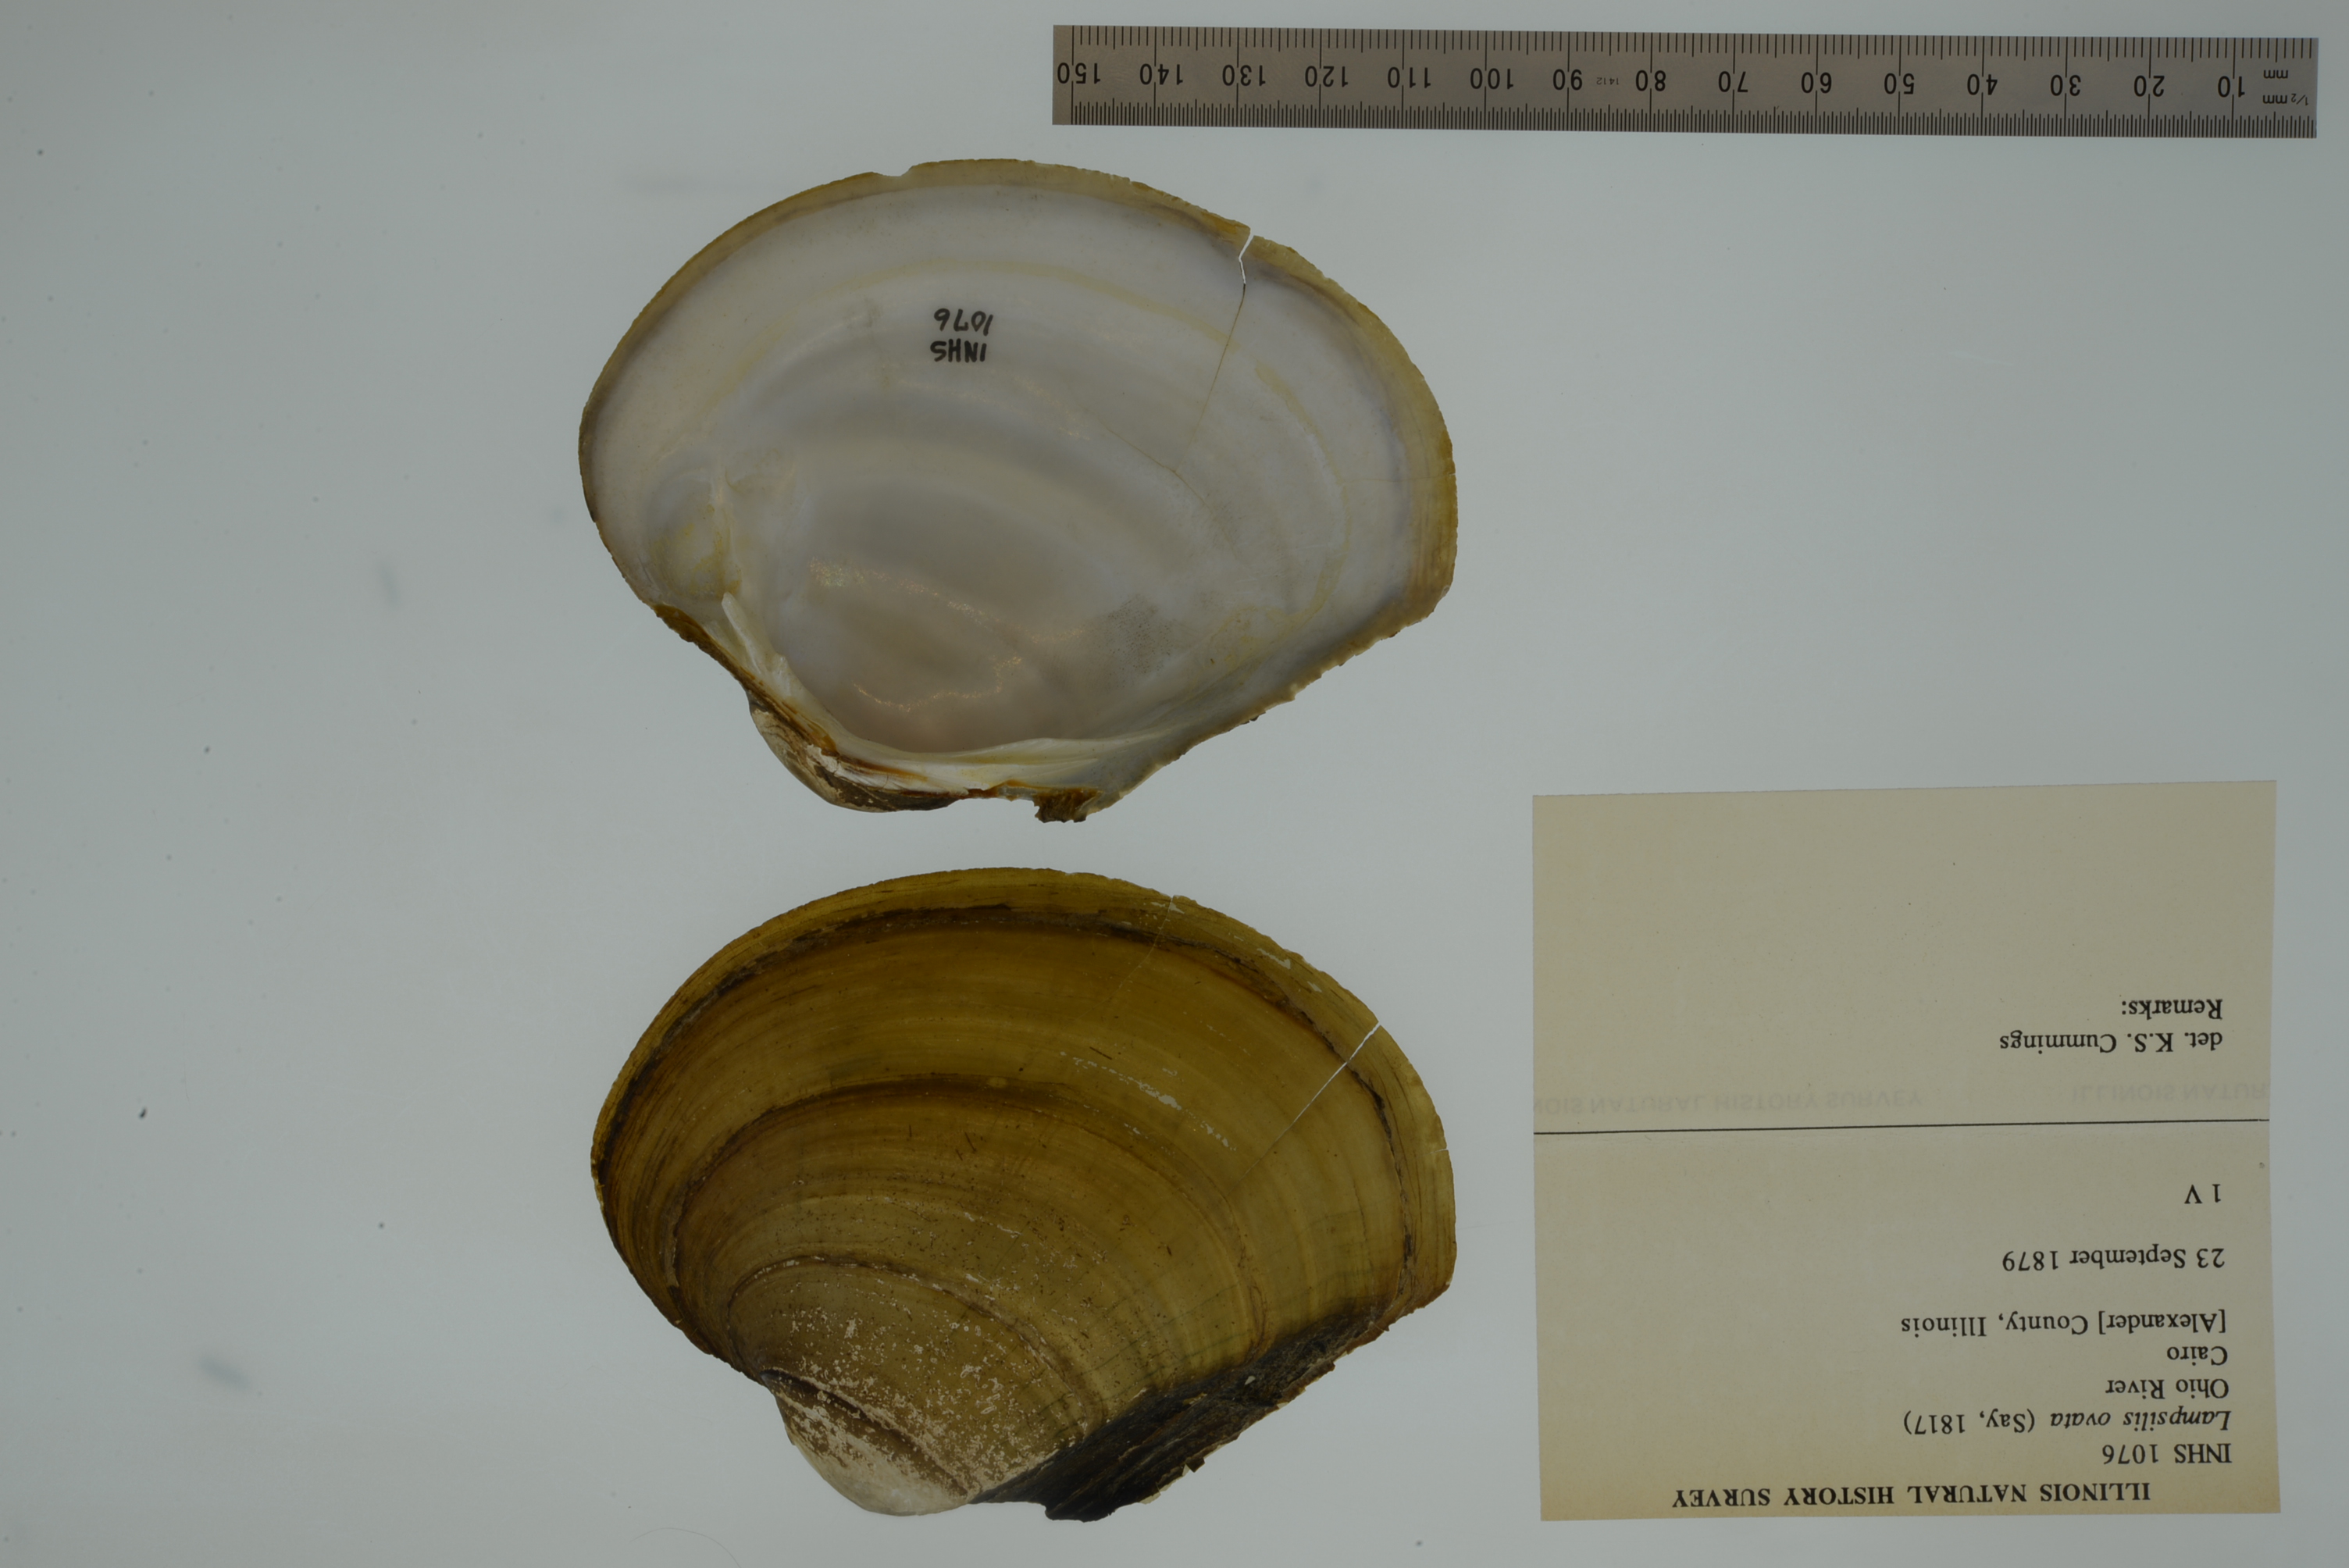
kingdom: Animalia
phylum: Mollusca
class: Bivalvia
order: Unionida
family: Unionidae
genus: Lampsilis
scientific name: Lampsilis ovata
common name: Pocketbook
